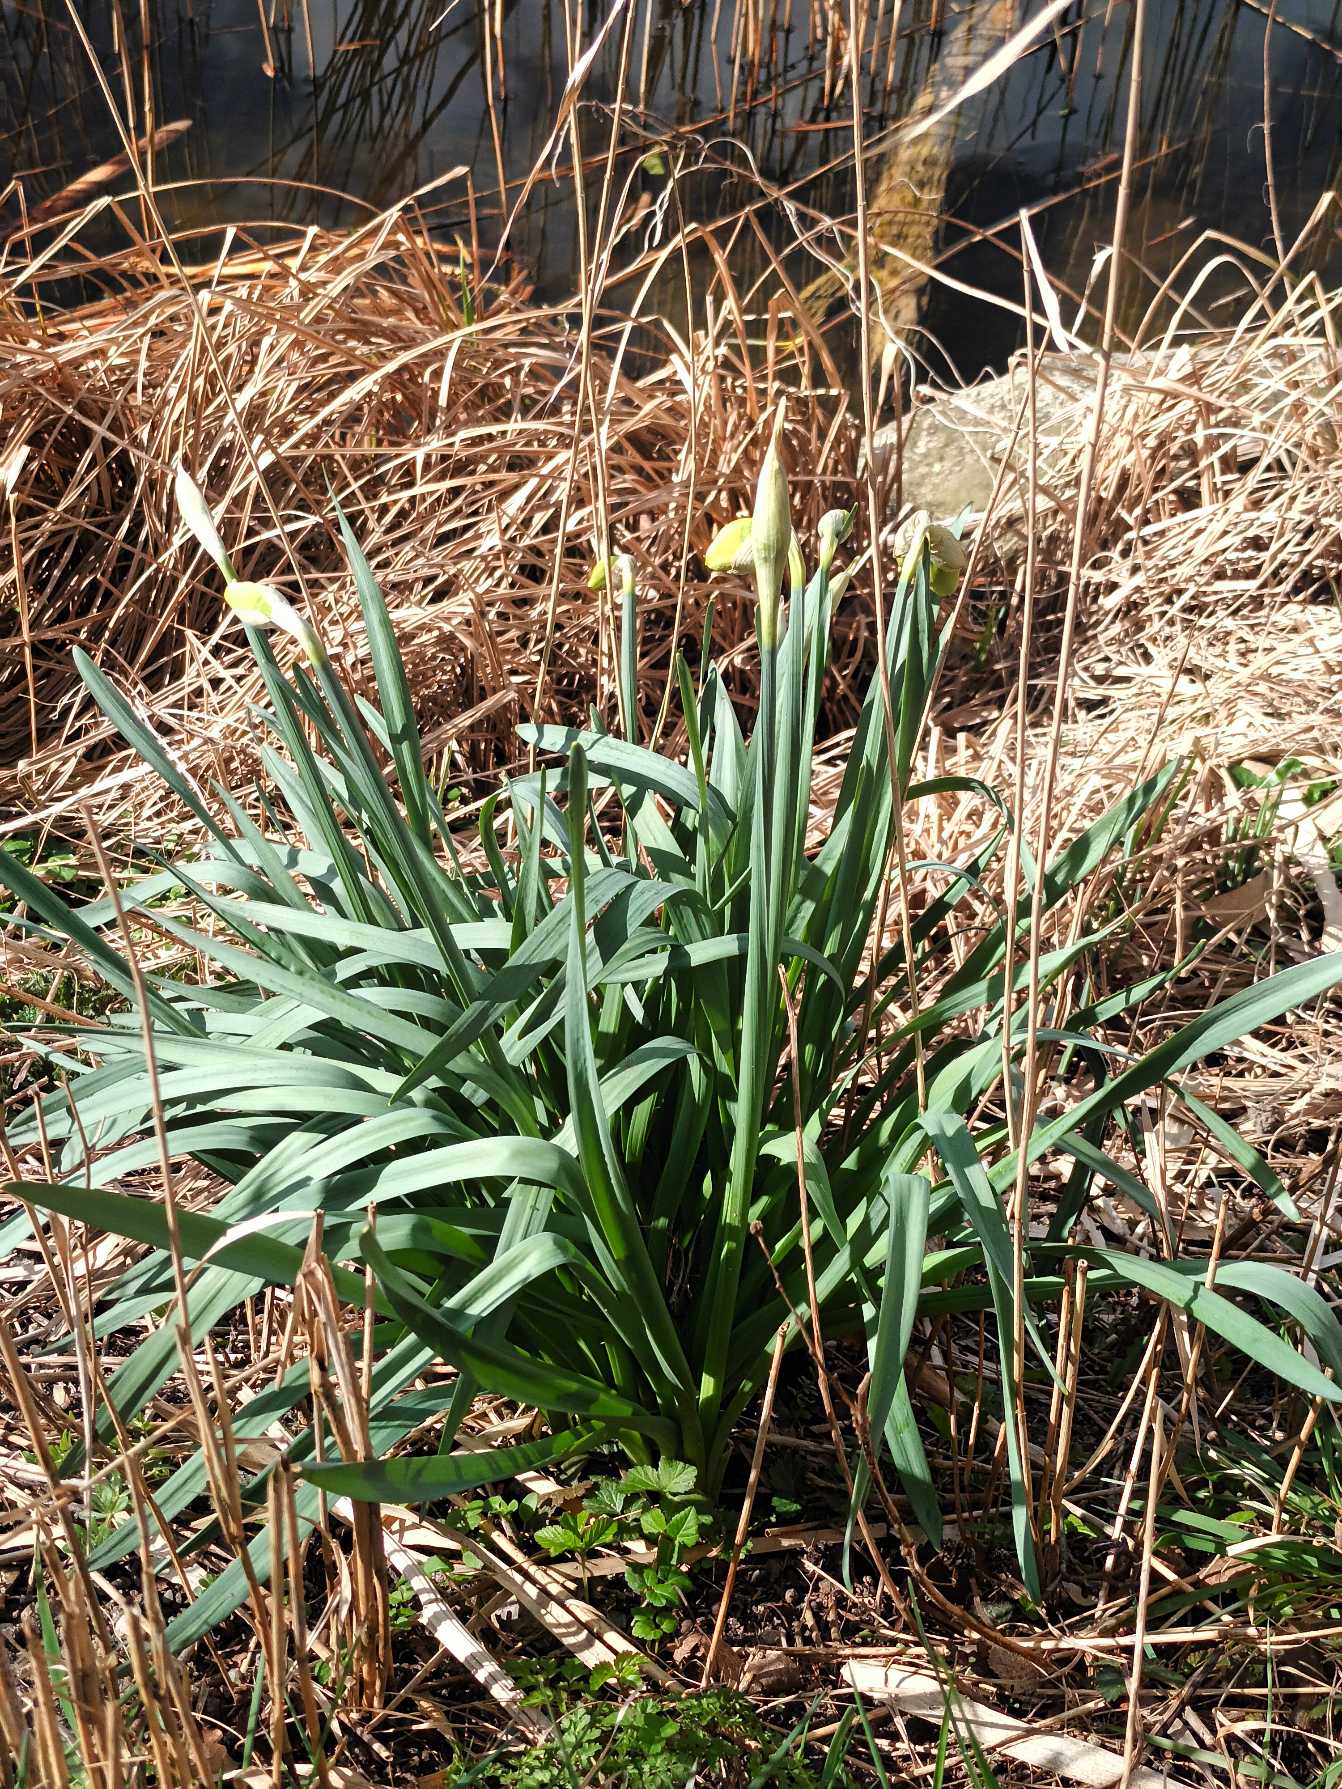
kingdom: Plantae
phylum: Tracheophyta
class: Liliopsida
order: Asparagales
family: Amaryllidaceae
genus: Narcissus
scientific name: Narcissus pseudonarcissus
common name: Påskelilje
